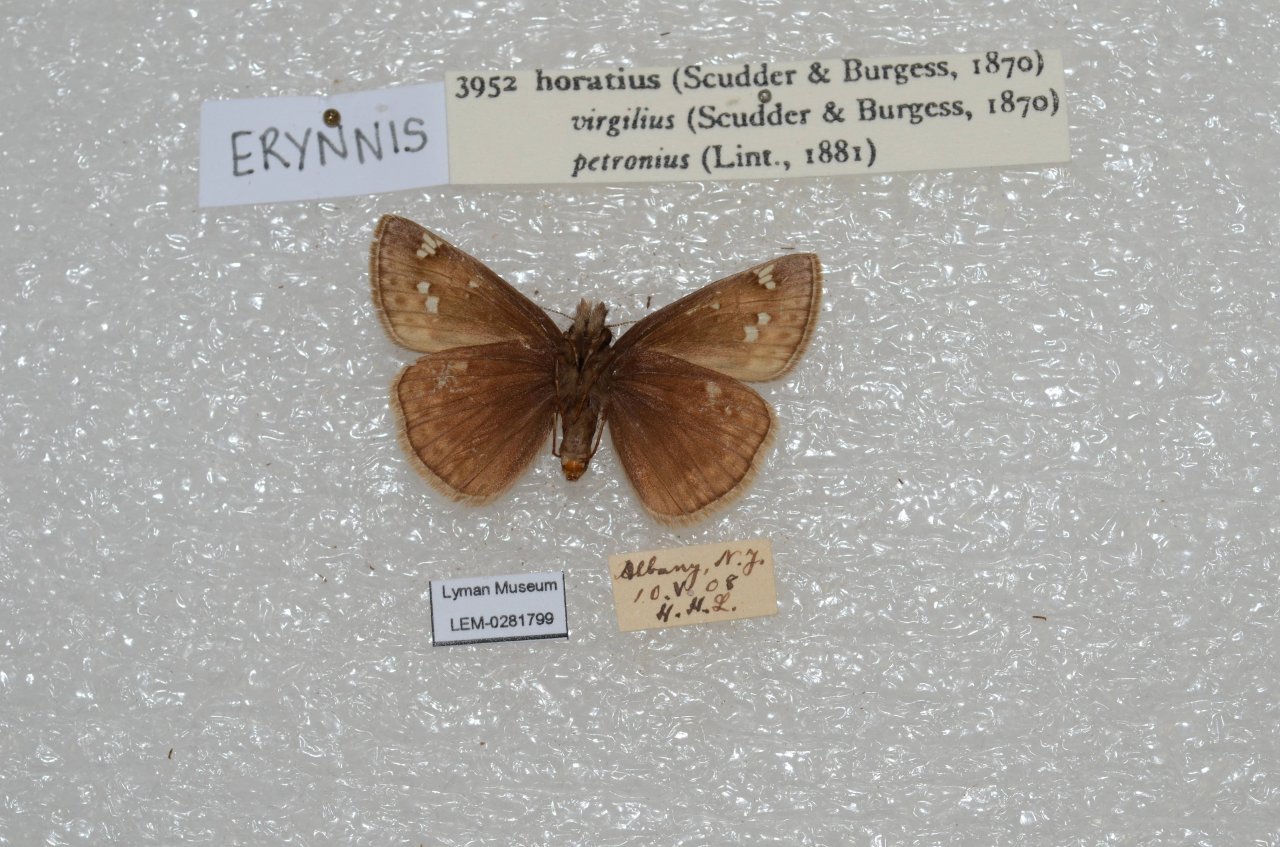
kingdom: Animalia
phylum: Arthropoda
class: Insecta
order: Lepidoptera
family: Hesperiidae
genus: Gesta
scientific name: Gesta
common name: Horace's Duskywing
